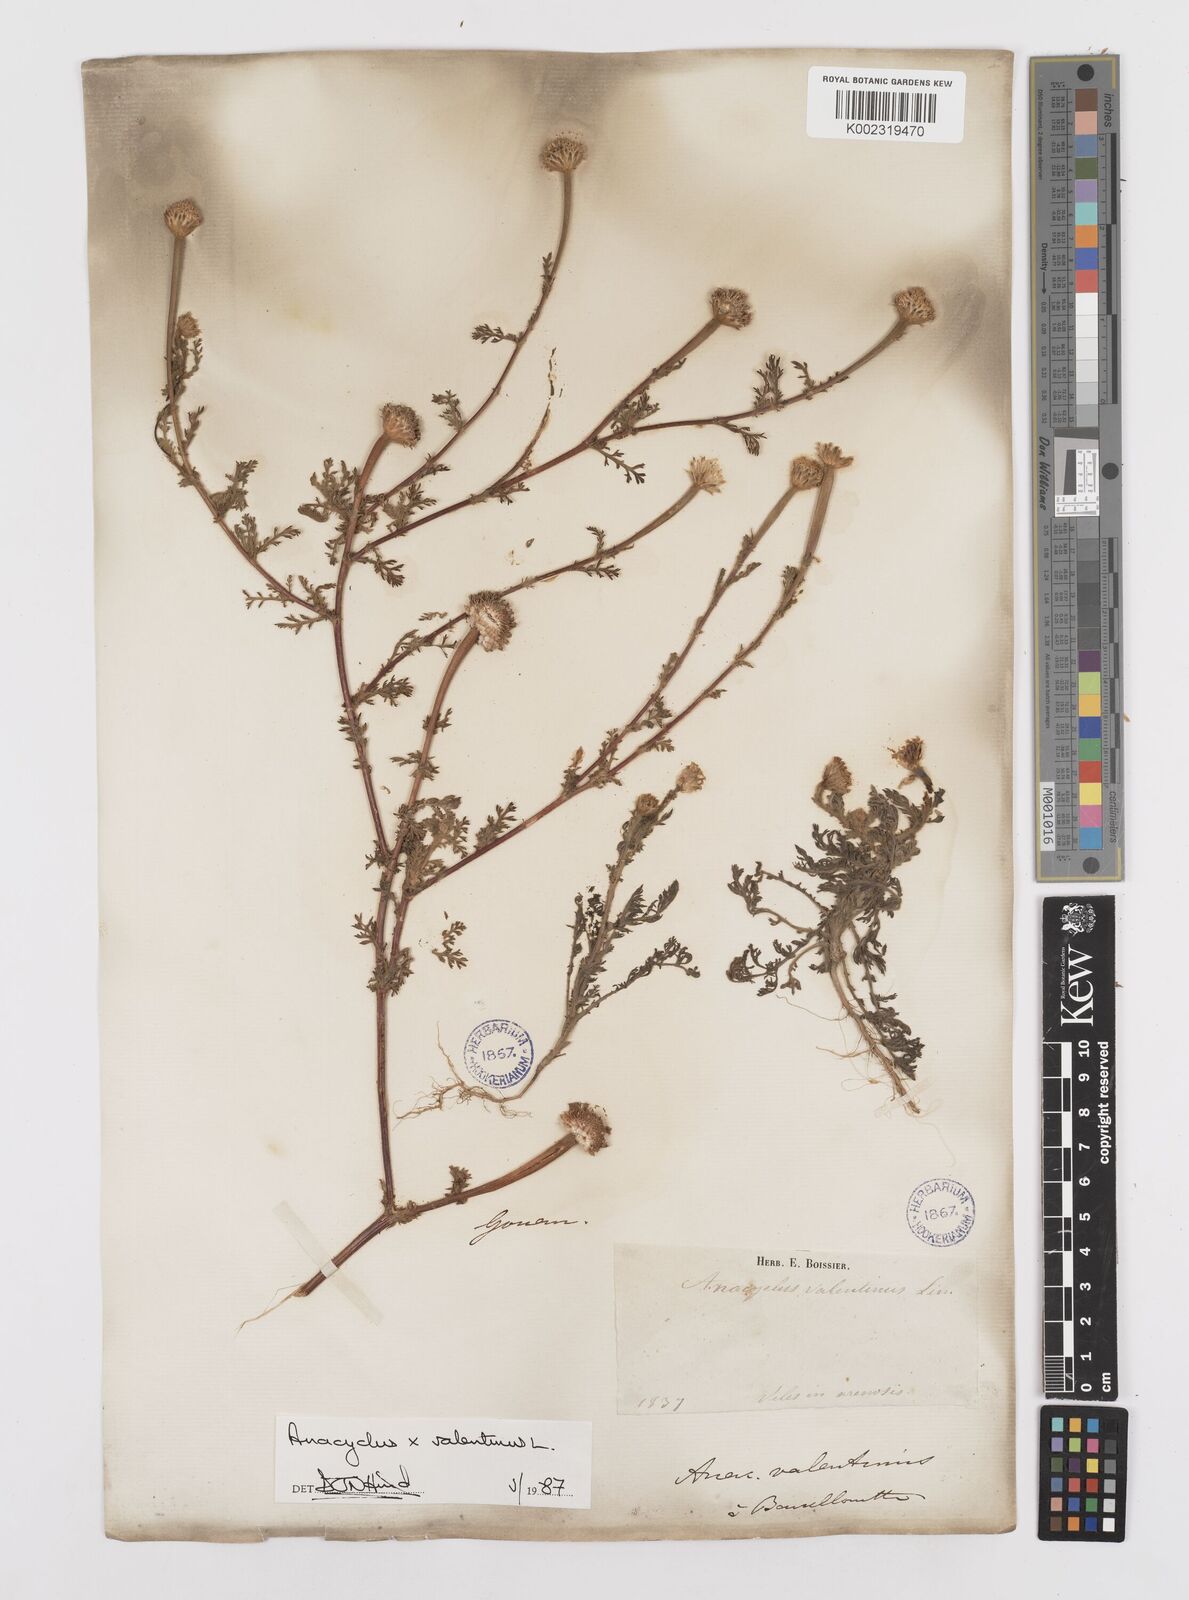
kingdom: Plantae
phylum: Tracheophyta
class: Magnoliopsida
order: Asterales
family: Asteraceae
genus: Anacyclus
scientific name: Anacyclus valentinus
